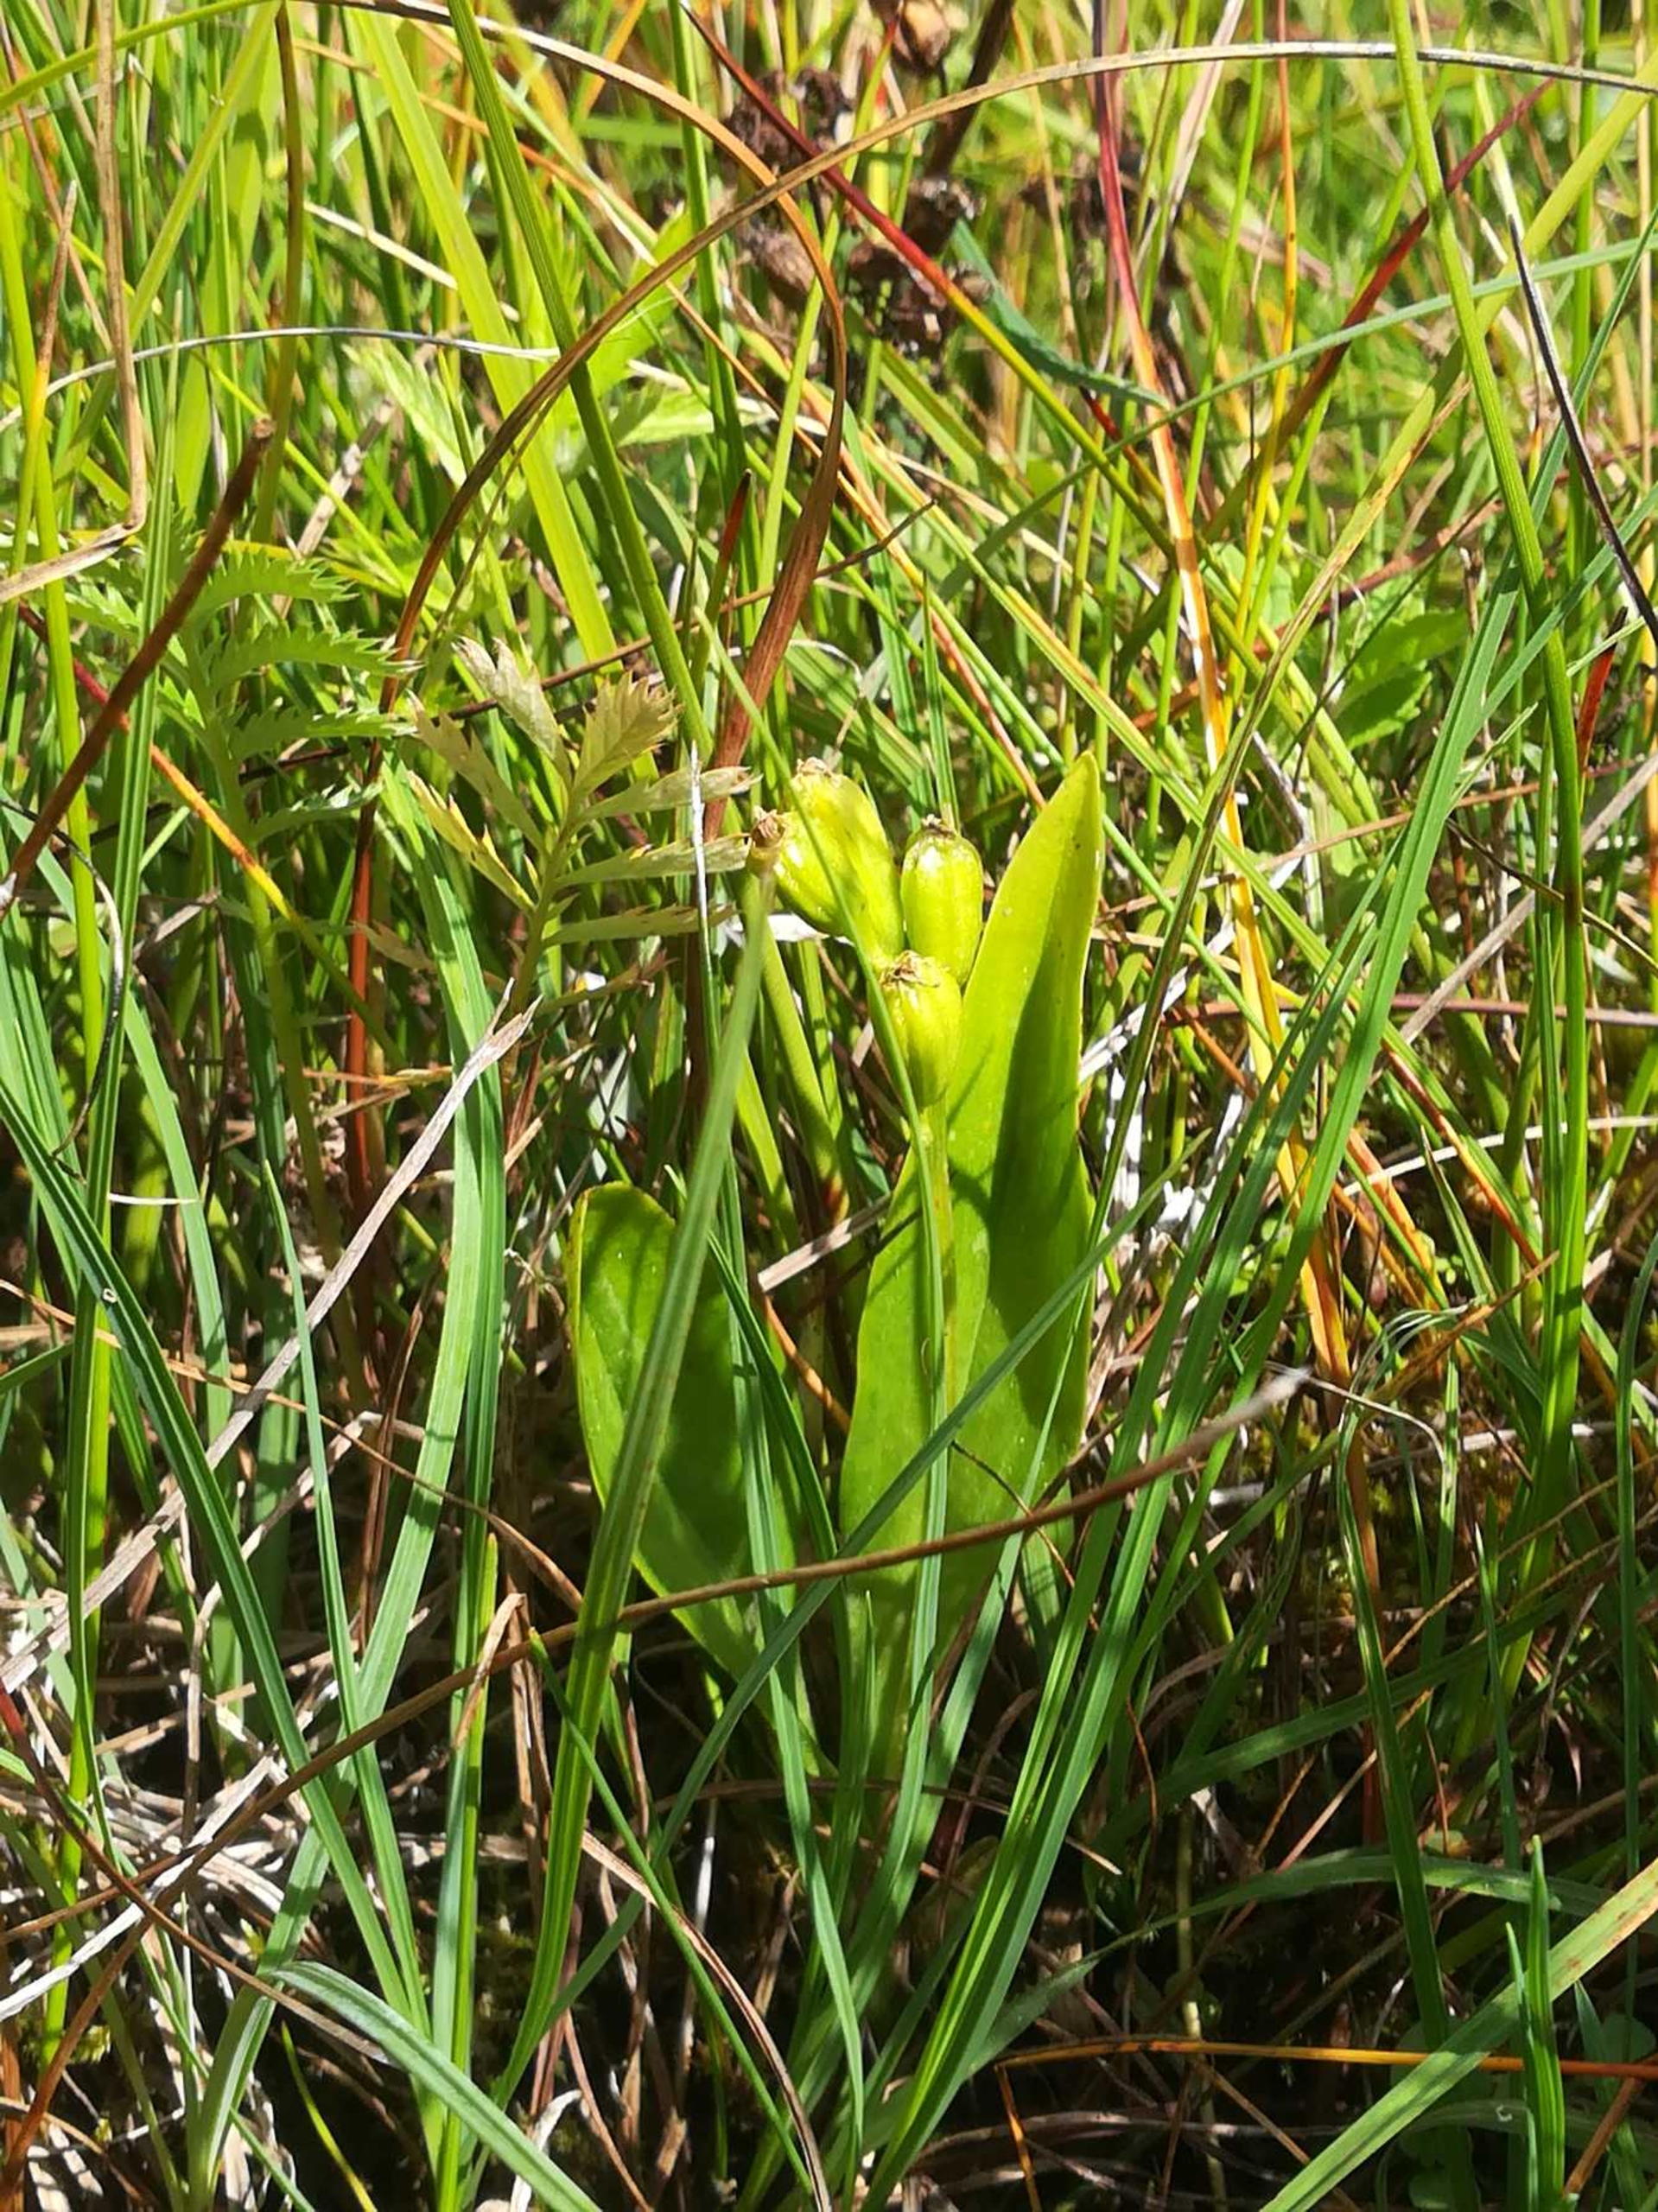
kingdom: Animalia
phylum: Arthropoda
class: Insecta
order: Coleoptera
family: Curculionidae
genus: Liparis
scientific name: Liparis loeselii
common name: Mygblomst
